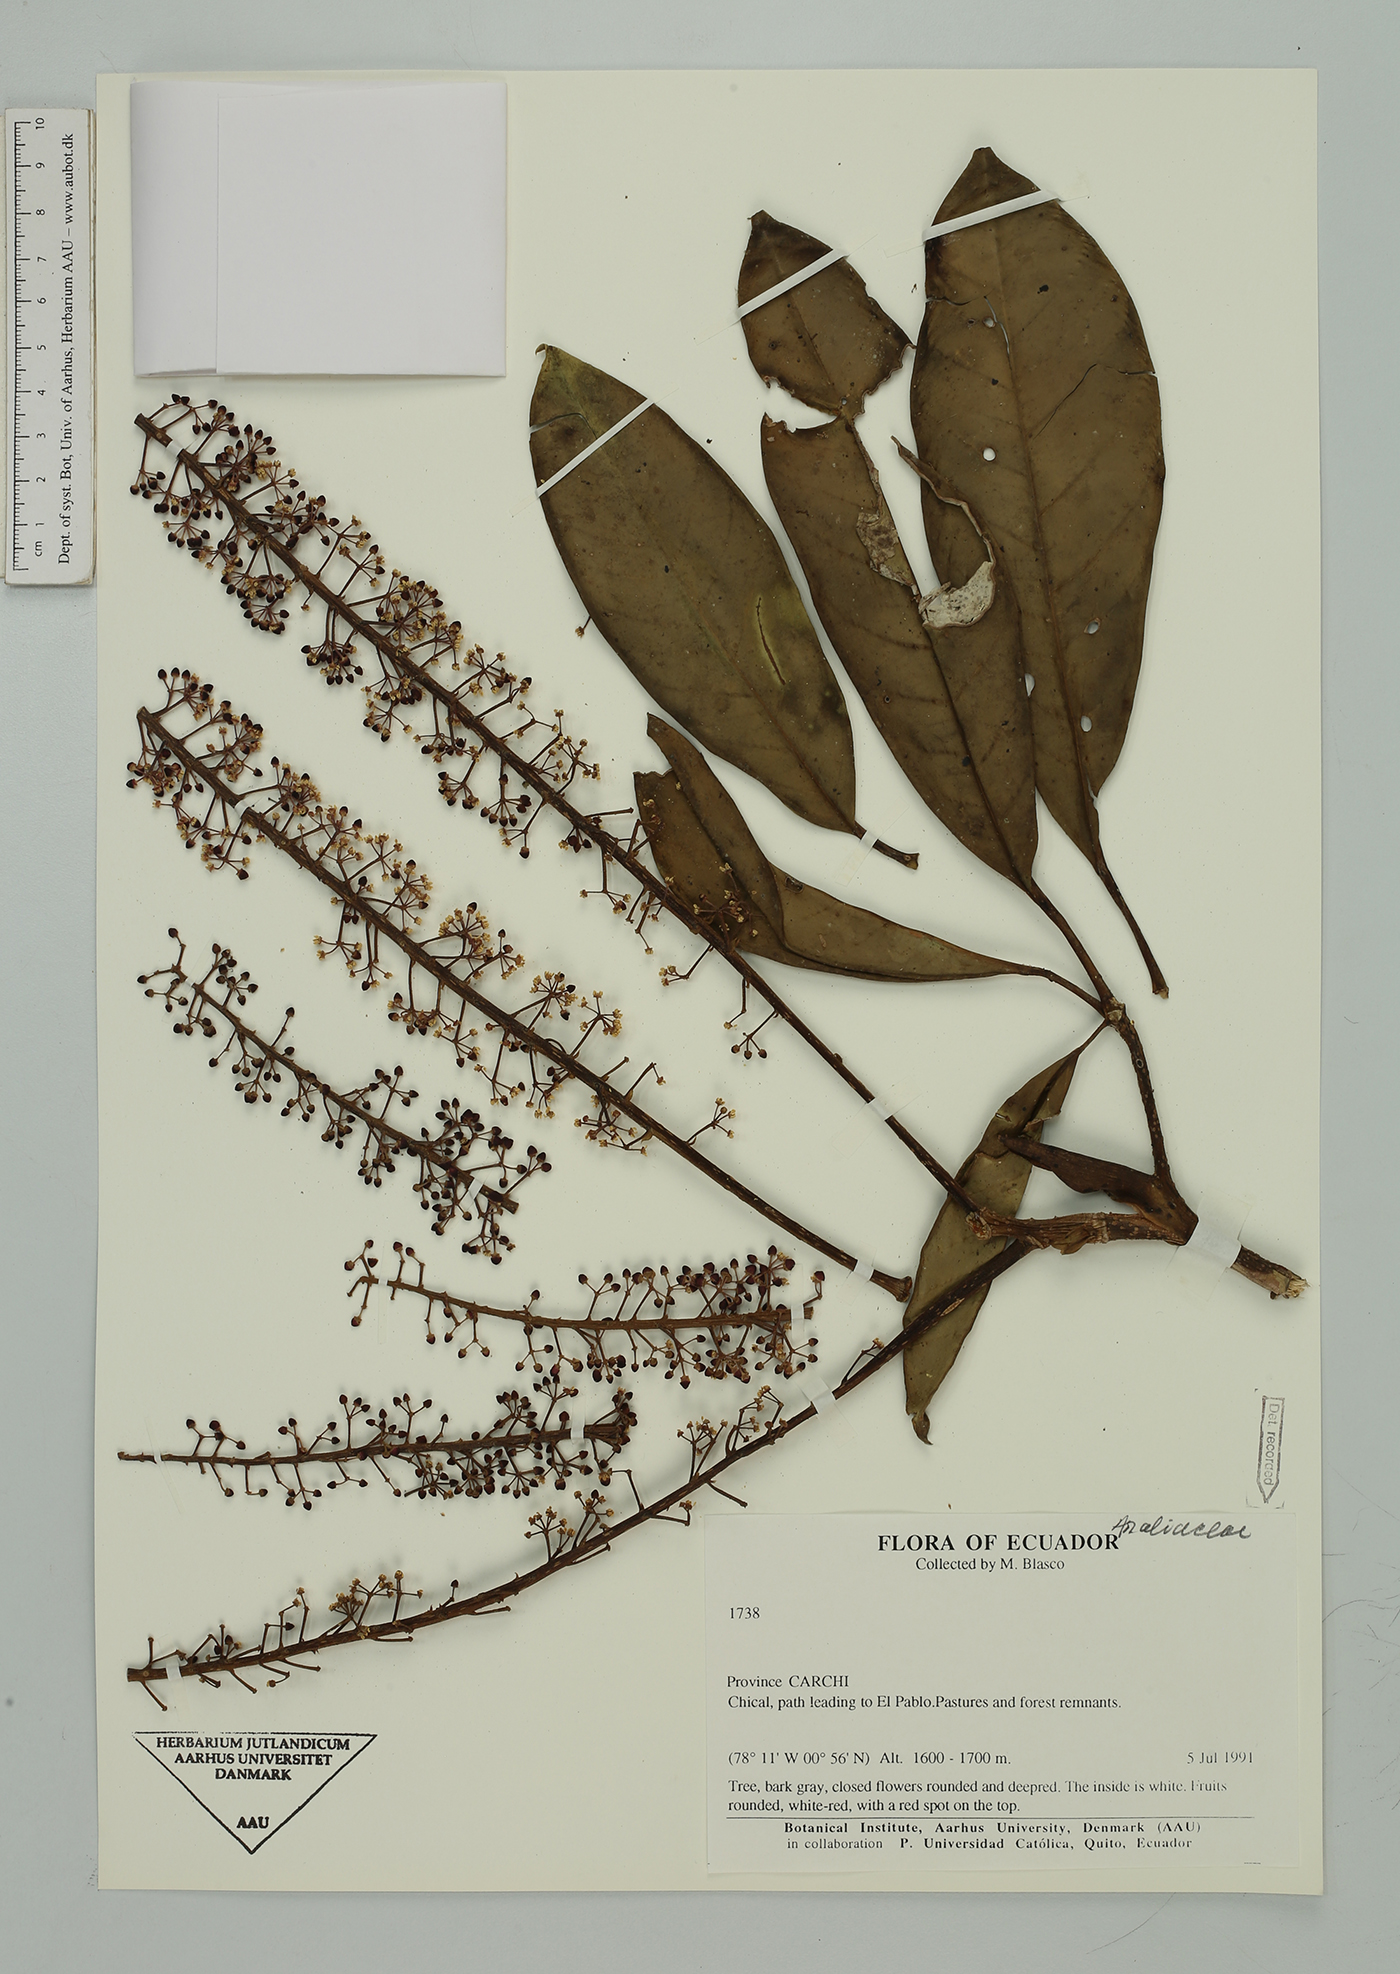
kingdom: Plantae
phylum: Tracheophyta
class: Magnoliopsida
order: Apiales
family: Araliaceae
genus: Sciodaphyllum
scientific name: Sciodaphyllum
